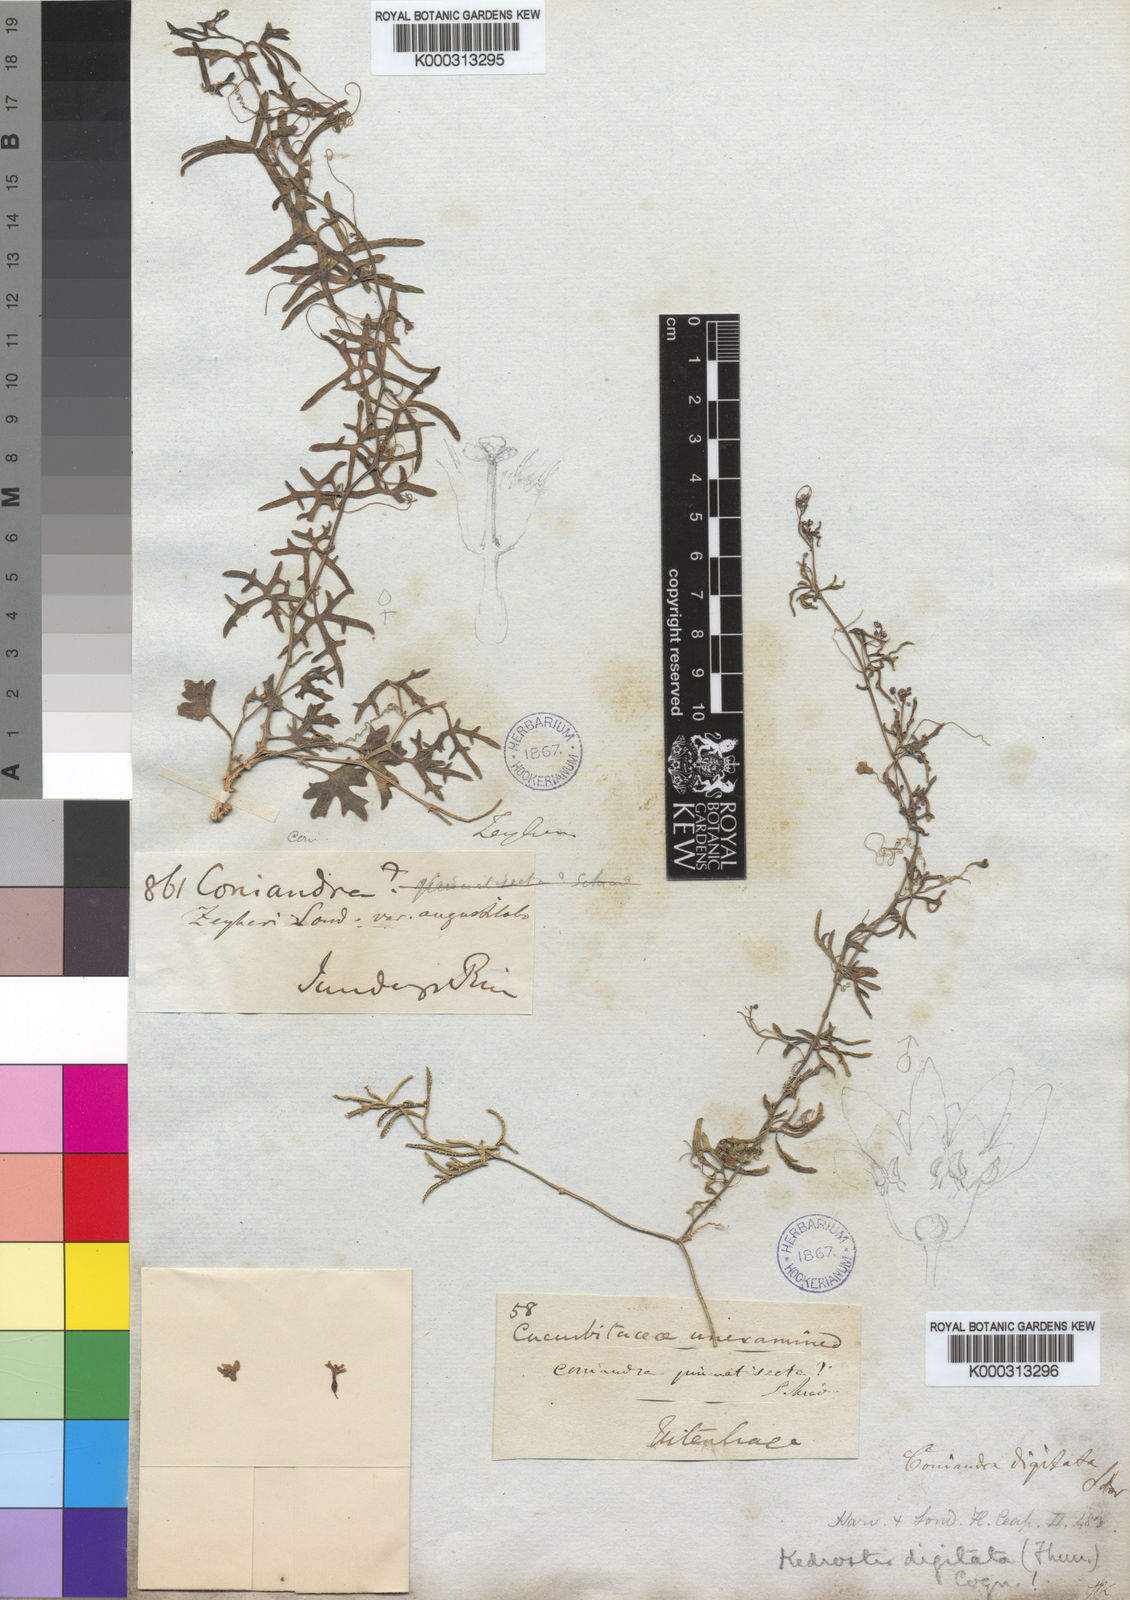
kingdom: Plantae
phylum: Tracheophyta
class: Magnoliopsida
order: Cucurbitales
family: Cucurbitaceae
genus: Kedrostis
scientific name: Kedrostis africana
